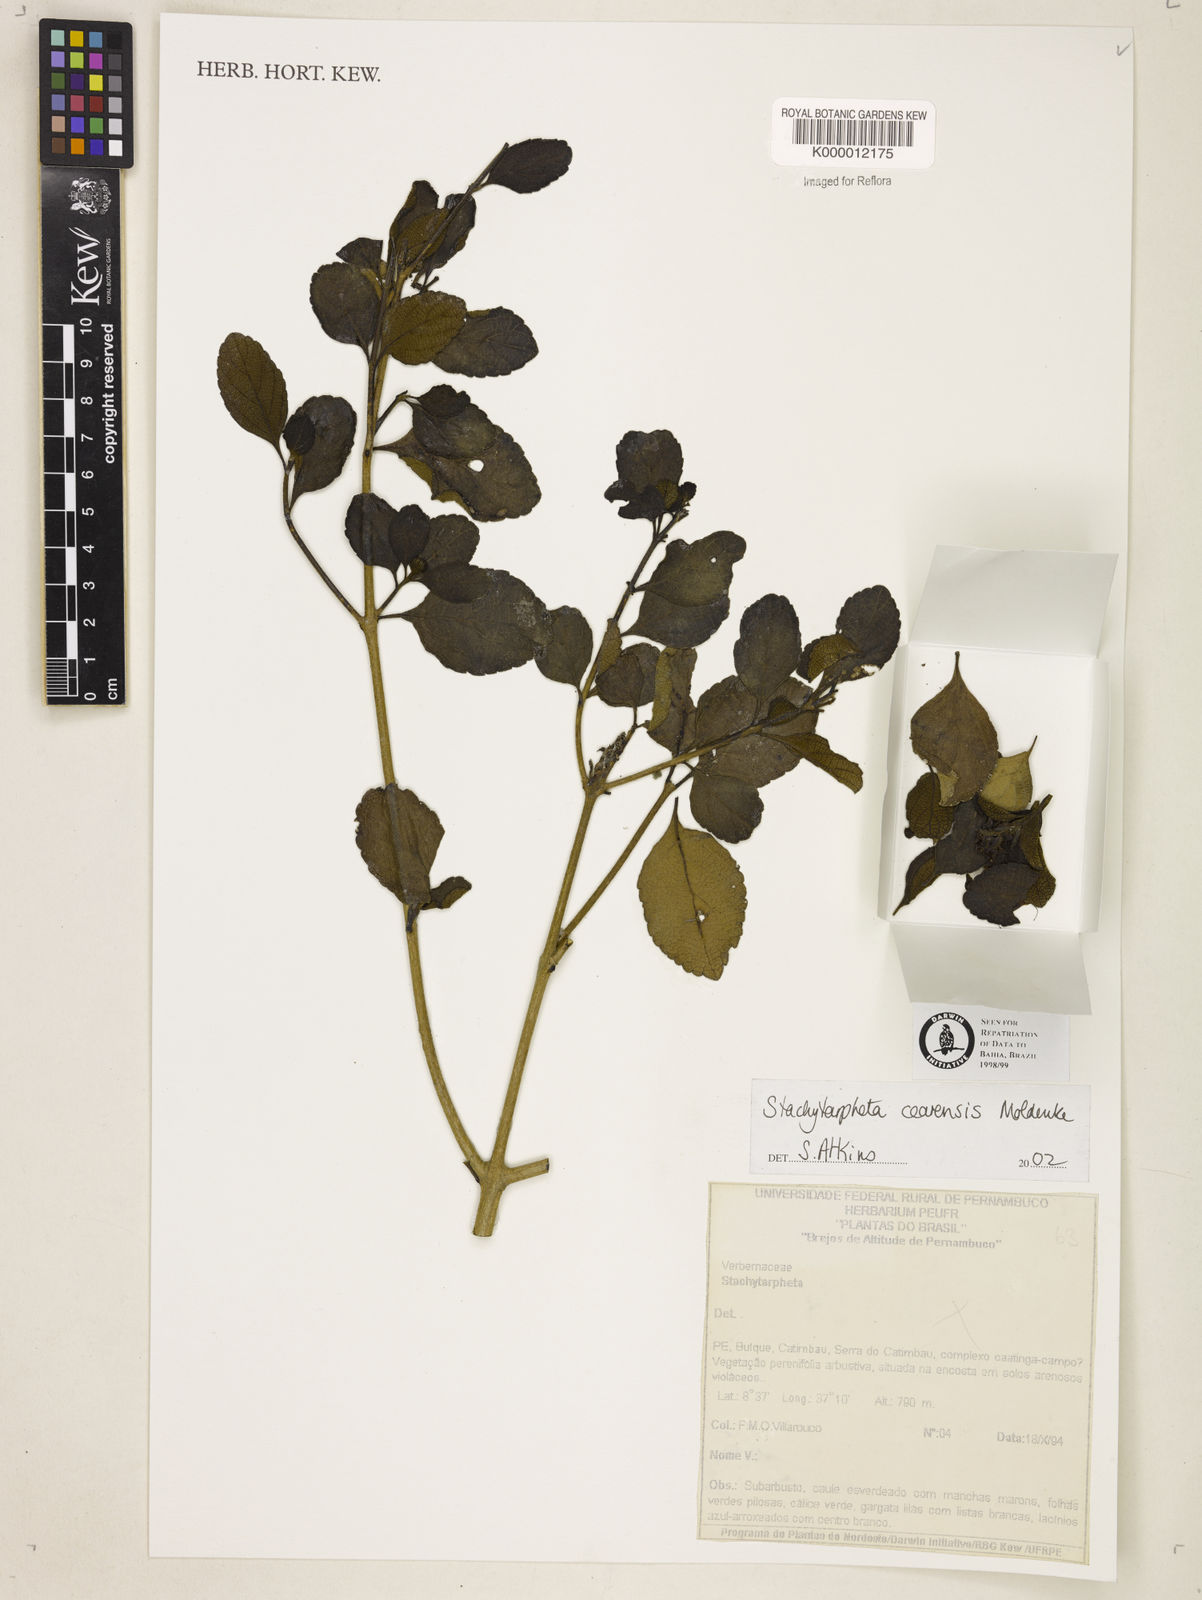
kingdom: Plantae
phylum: Tracheophyta
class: Magnoliopsida
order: Lamiales
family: Verbenaceae
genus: Stachytarpheta
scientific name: Stachytarpheta
